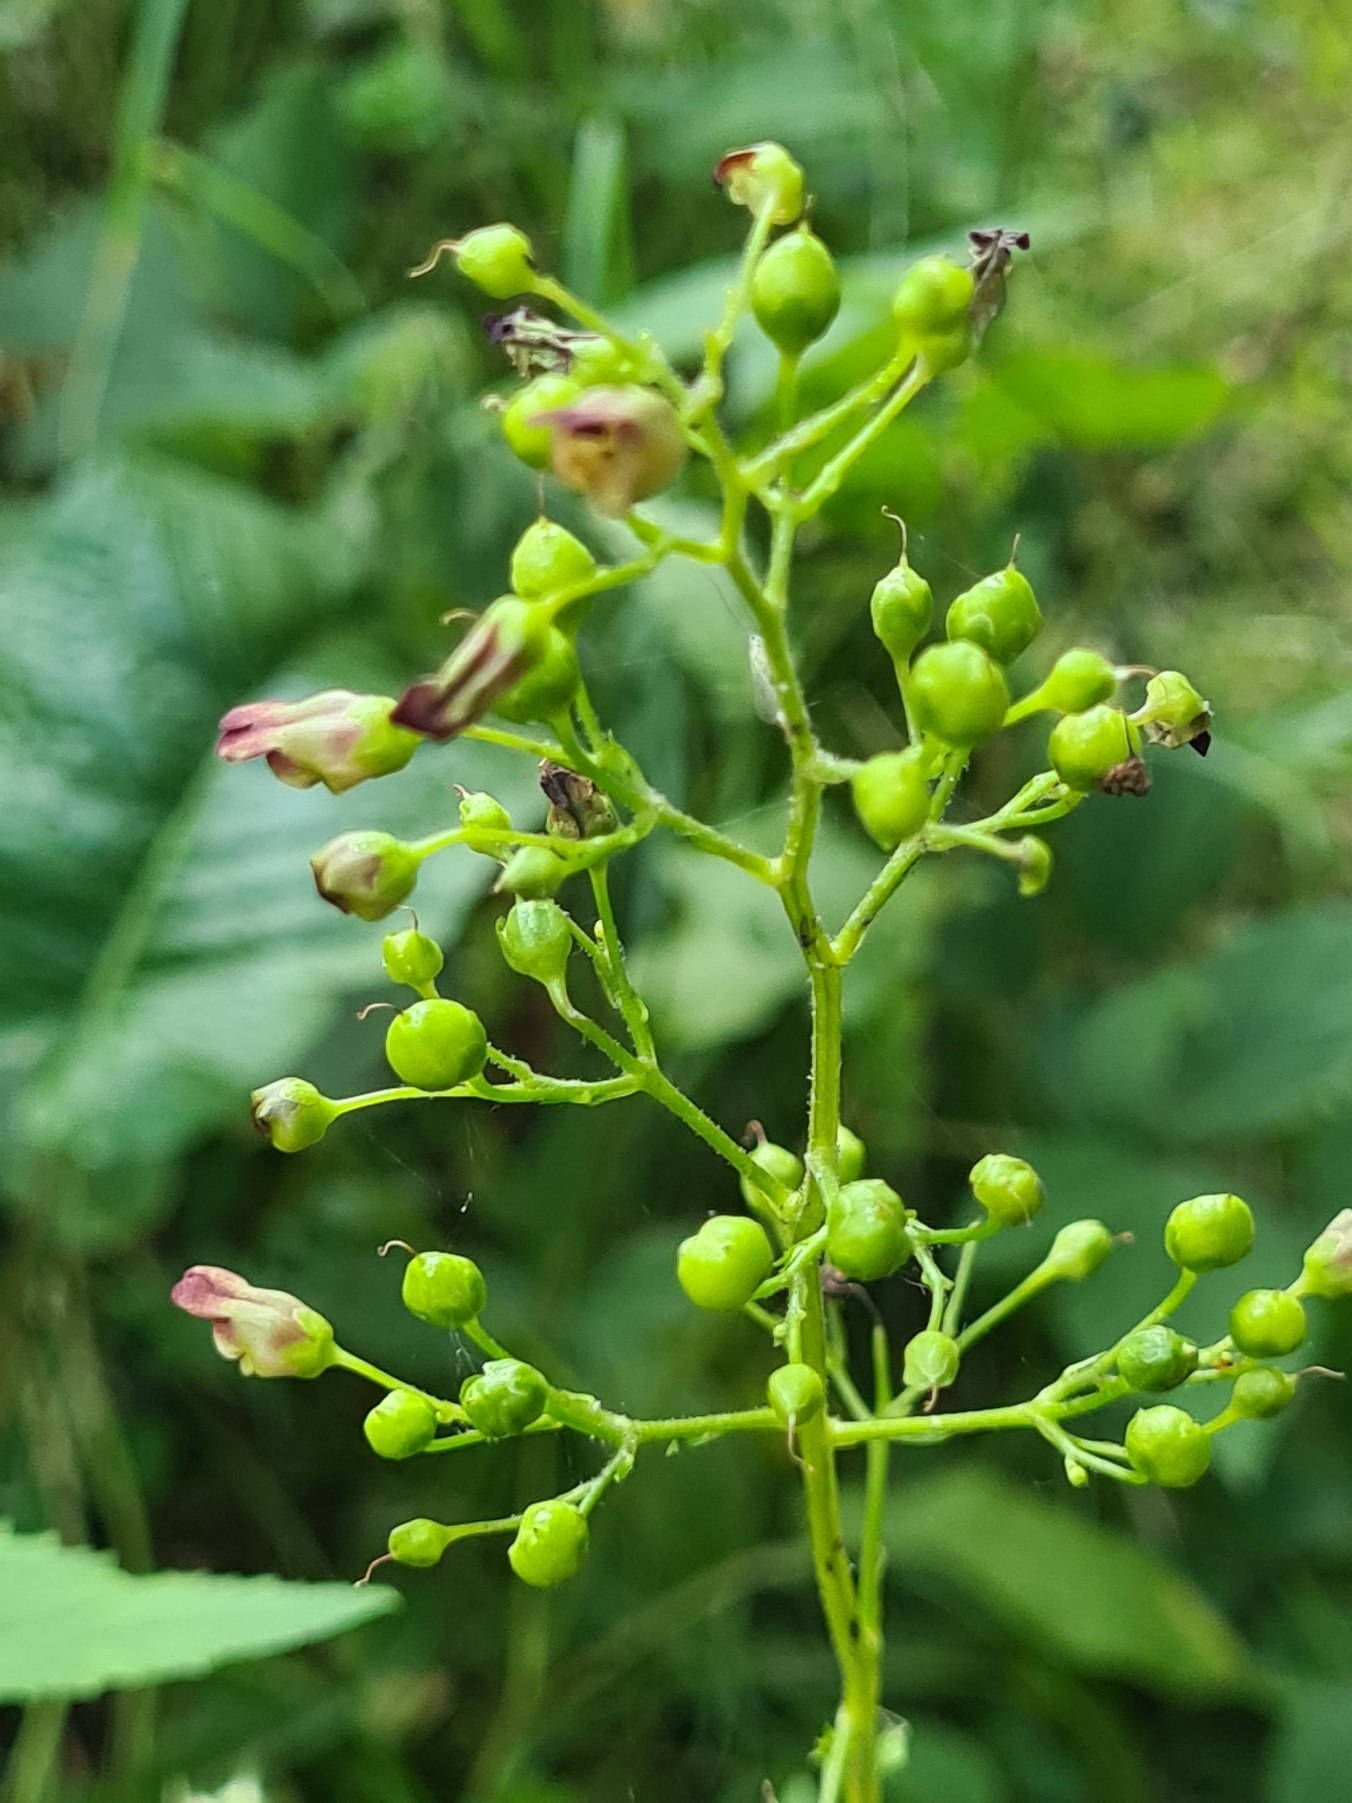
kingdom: Plantae
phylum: Tracheophyta
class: Magnoliopsida
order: Lamiales
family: Scrophulariaceae
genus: Scrophularia
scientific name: Scrophularia nodosa
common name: Knoldet brunrod
